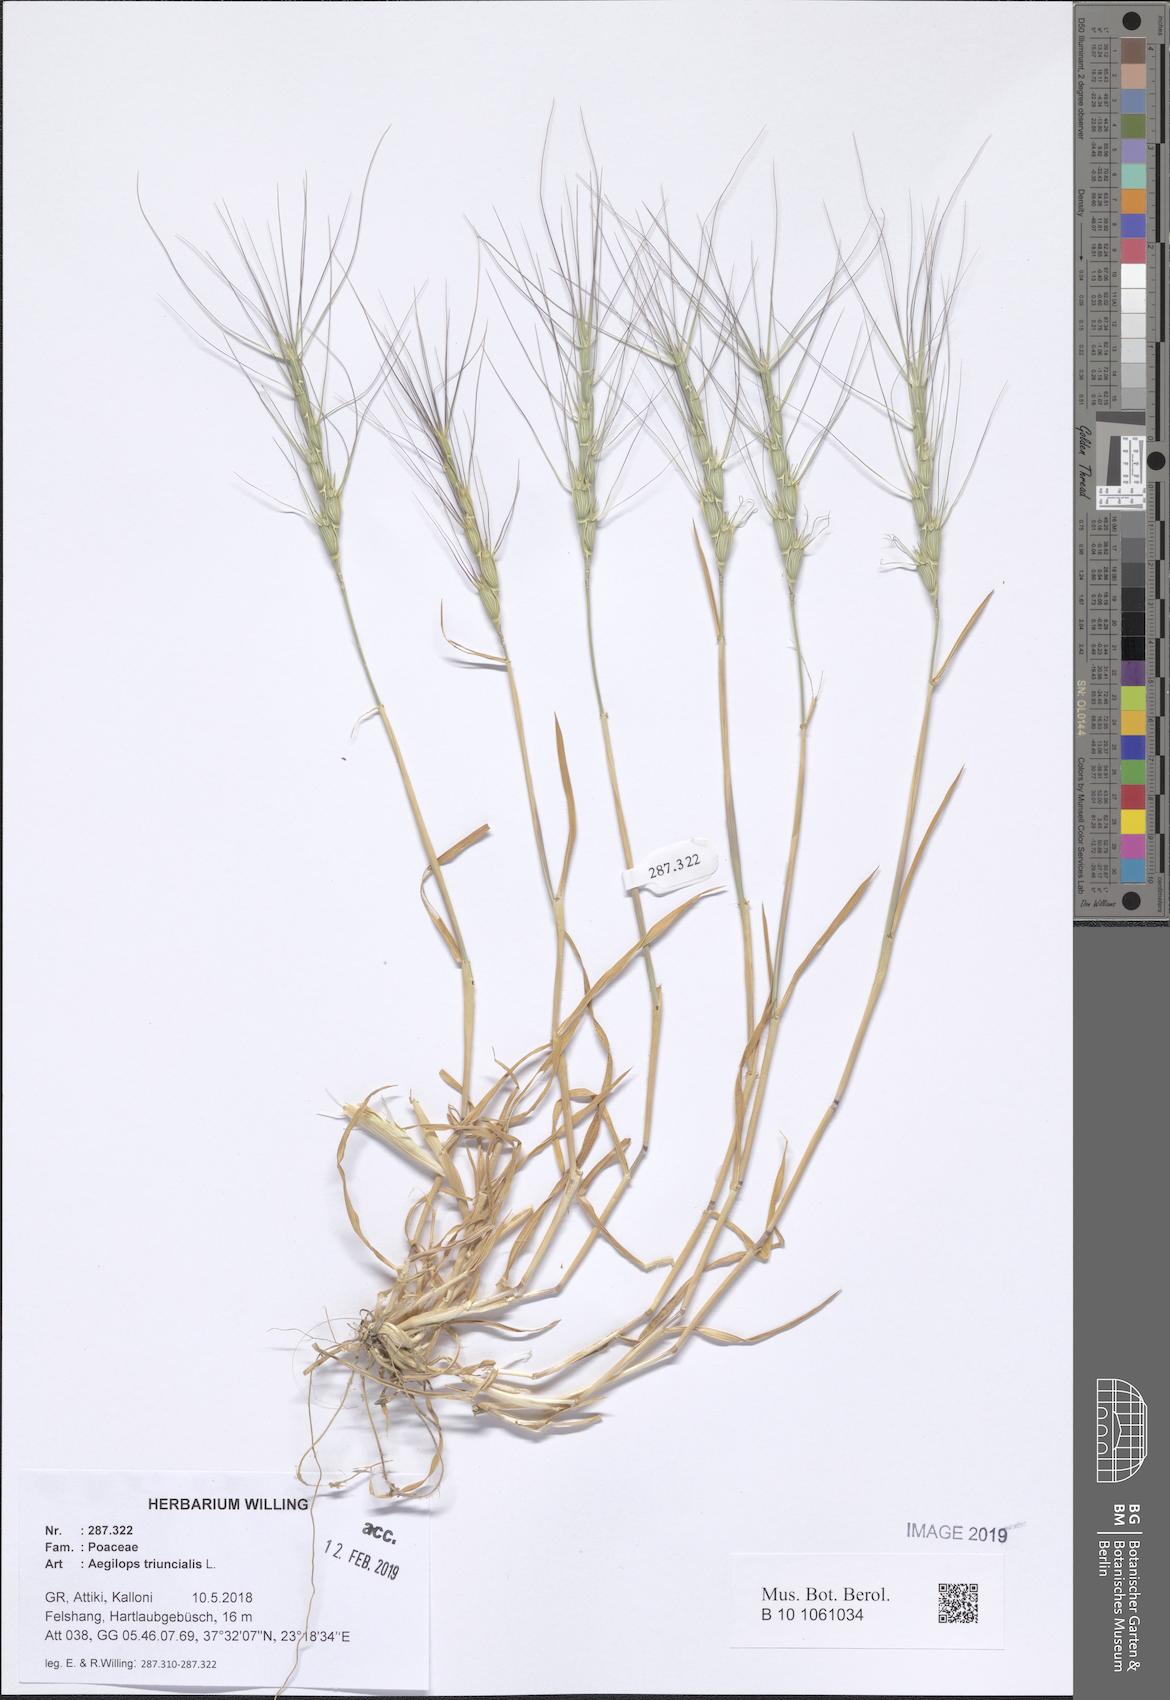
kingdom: Plantae
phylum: Tracheophyta
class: Liliopsida
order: Poales
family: Poaceae
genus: Aegilops
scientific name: Aegilops triuncialis
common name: Barb goat grass
